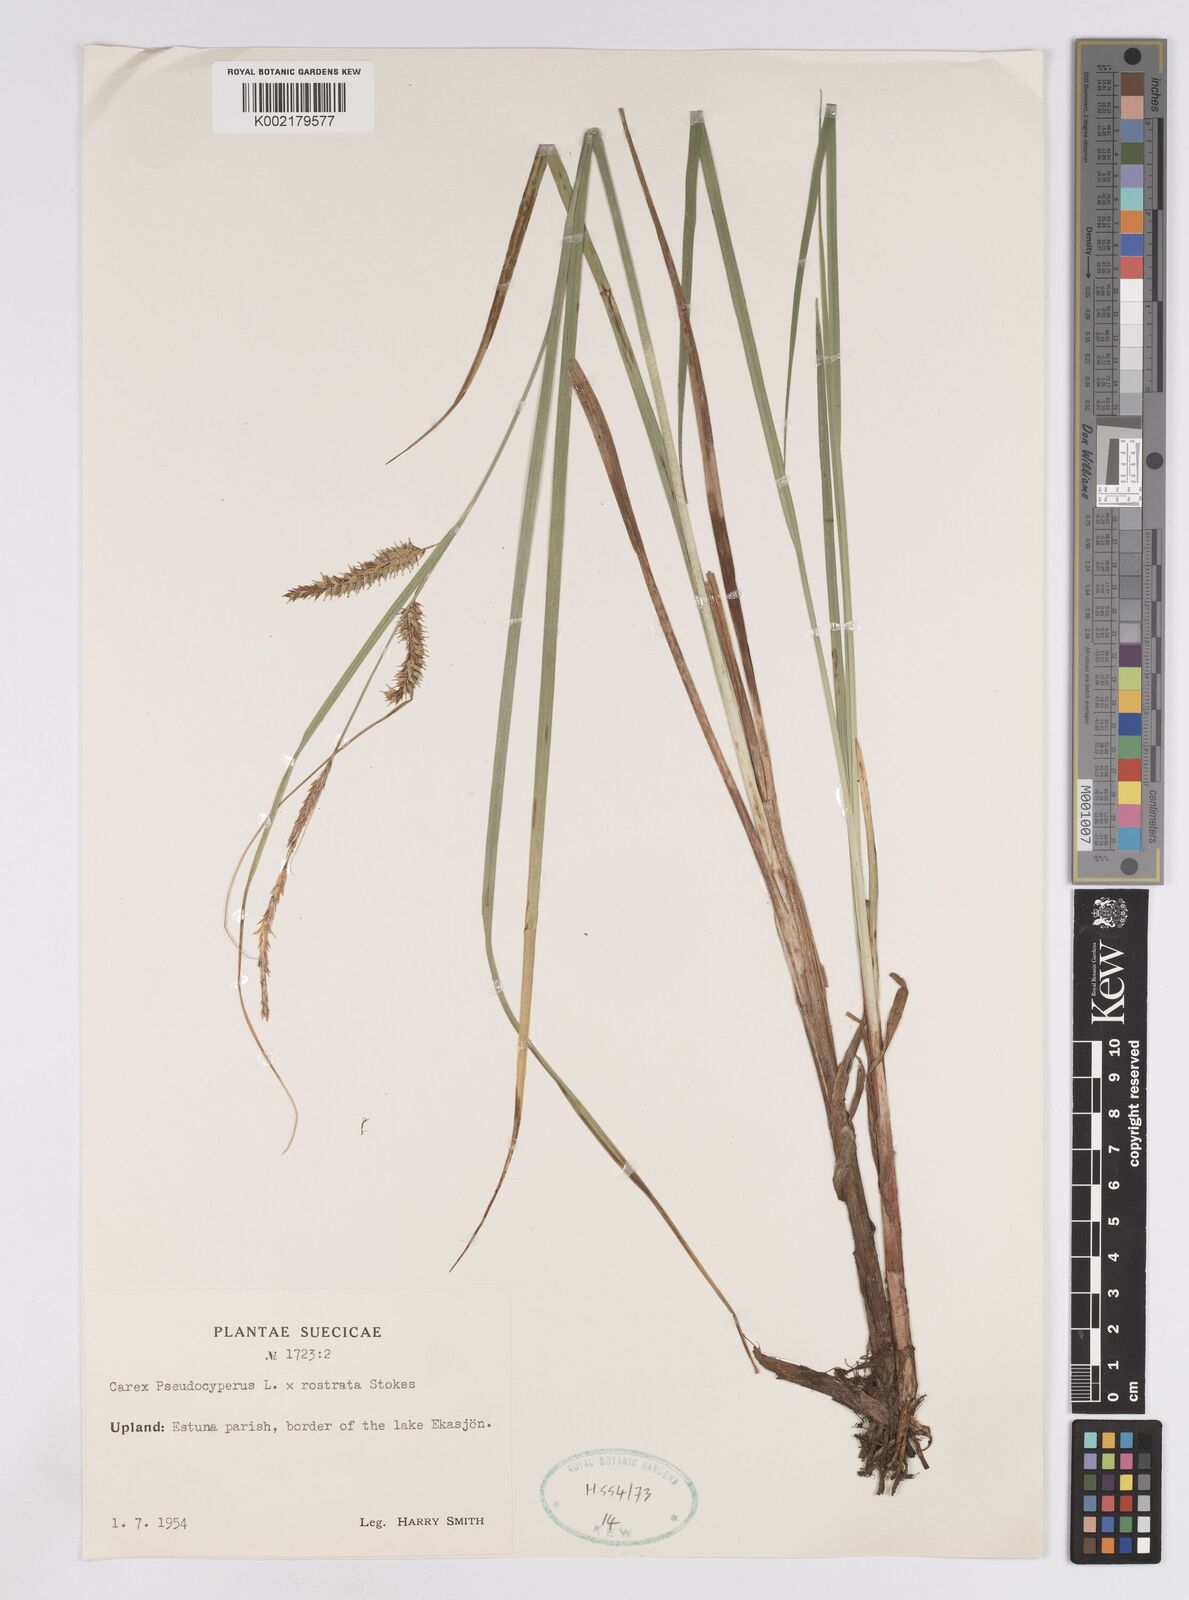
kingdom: Plantae
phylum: Tracheophyta
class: Liliopsida
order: Poales
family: Cyperaceae
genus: Carex
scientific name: Carex pseudocyperus
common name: Cyperus sedge
